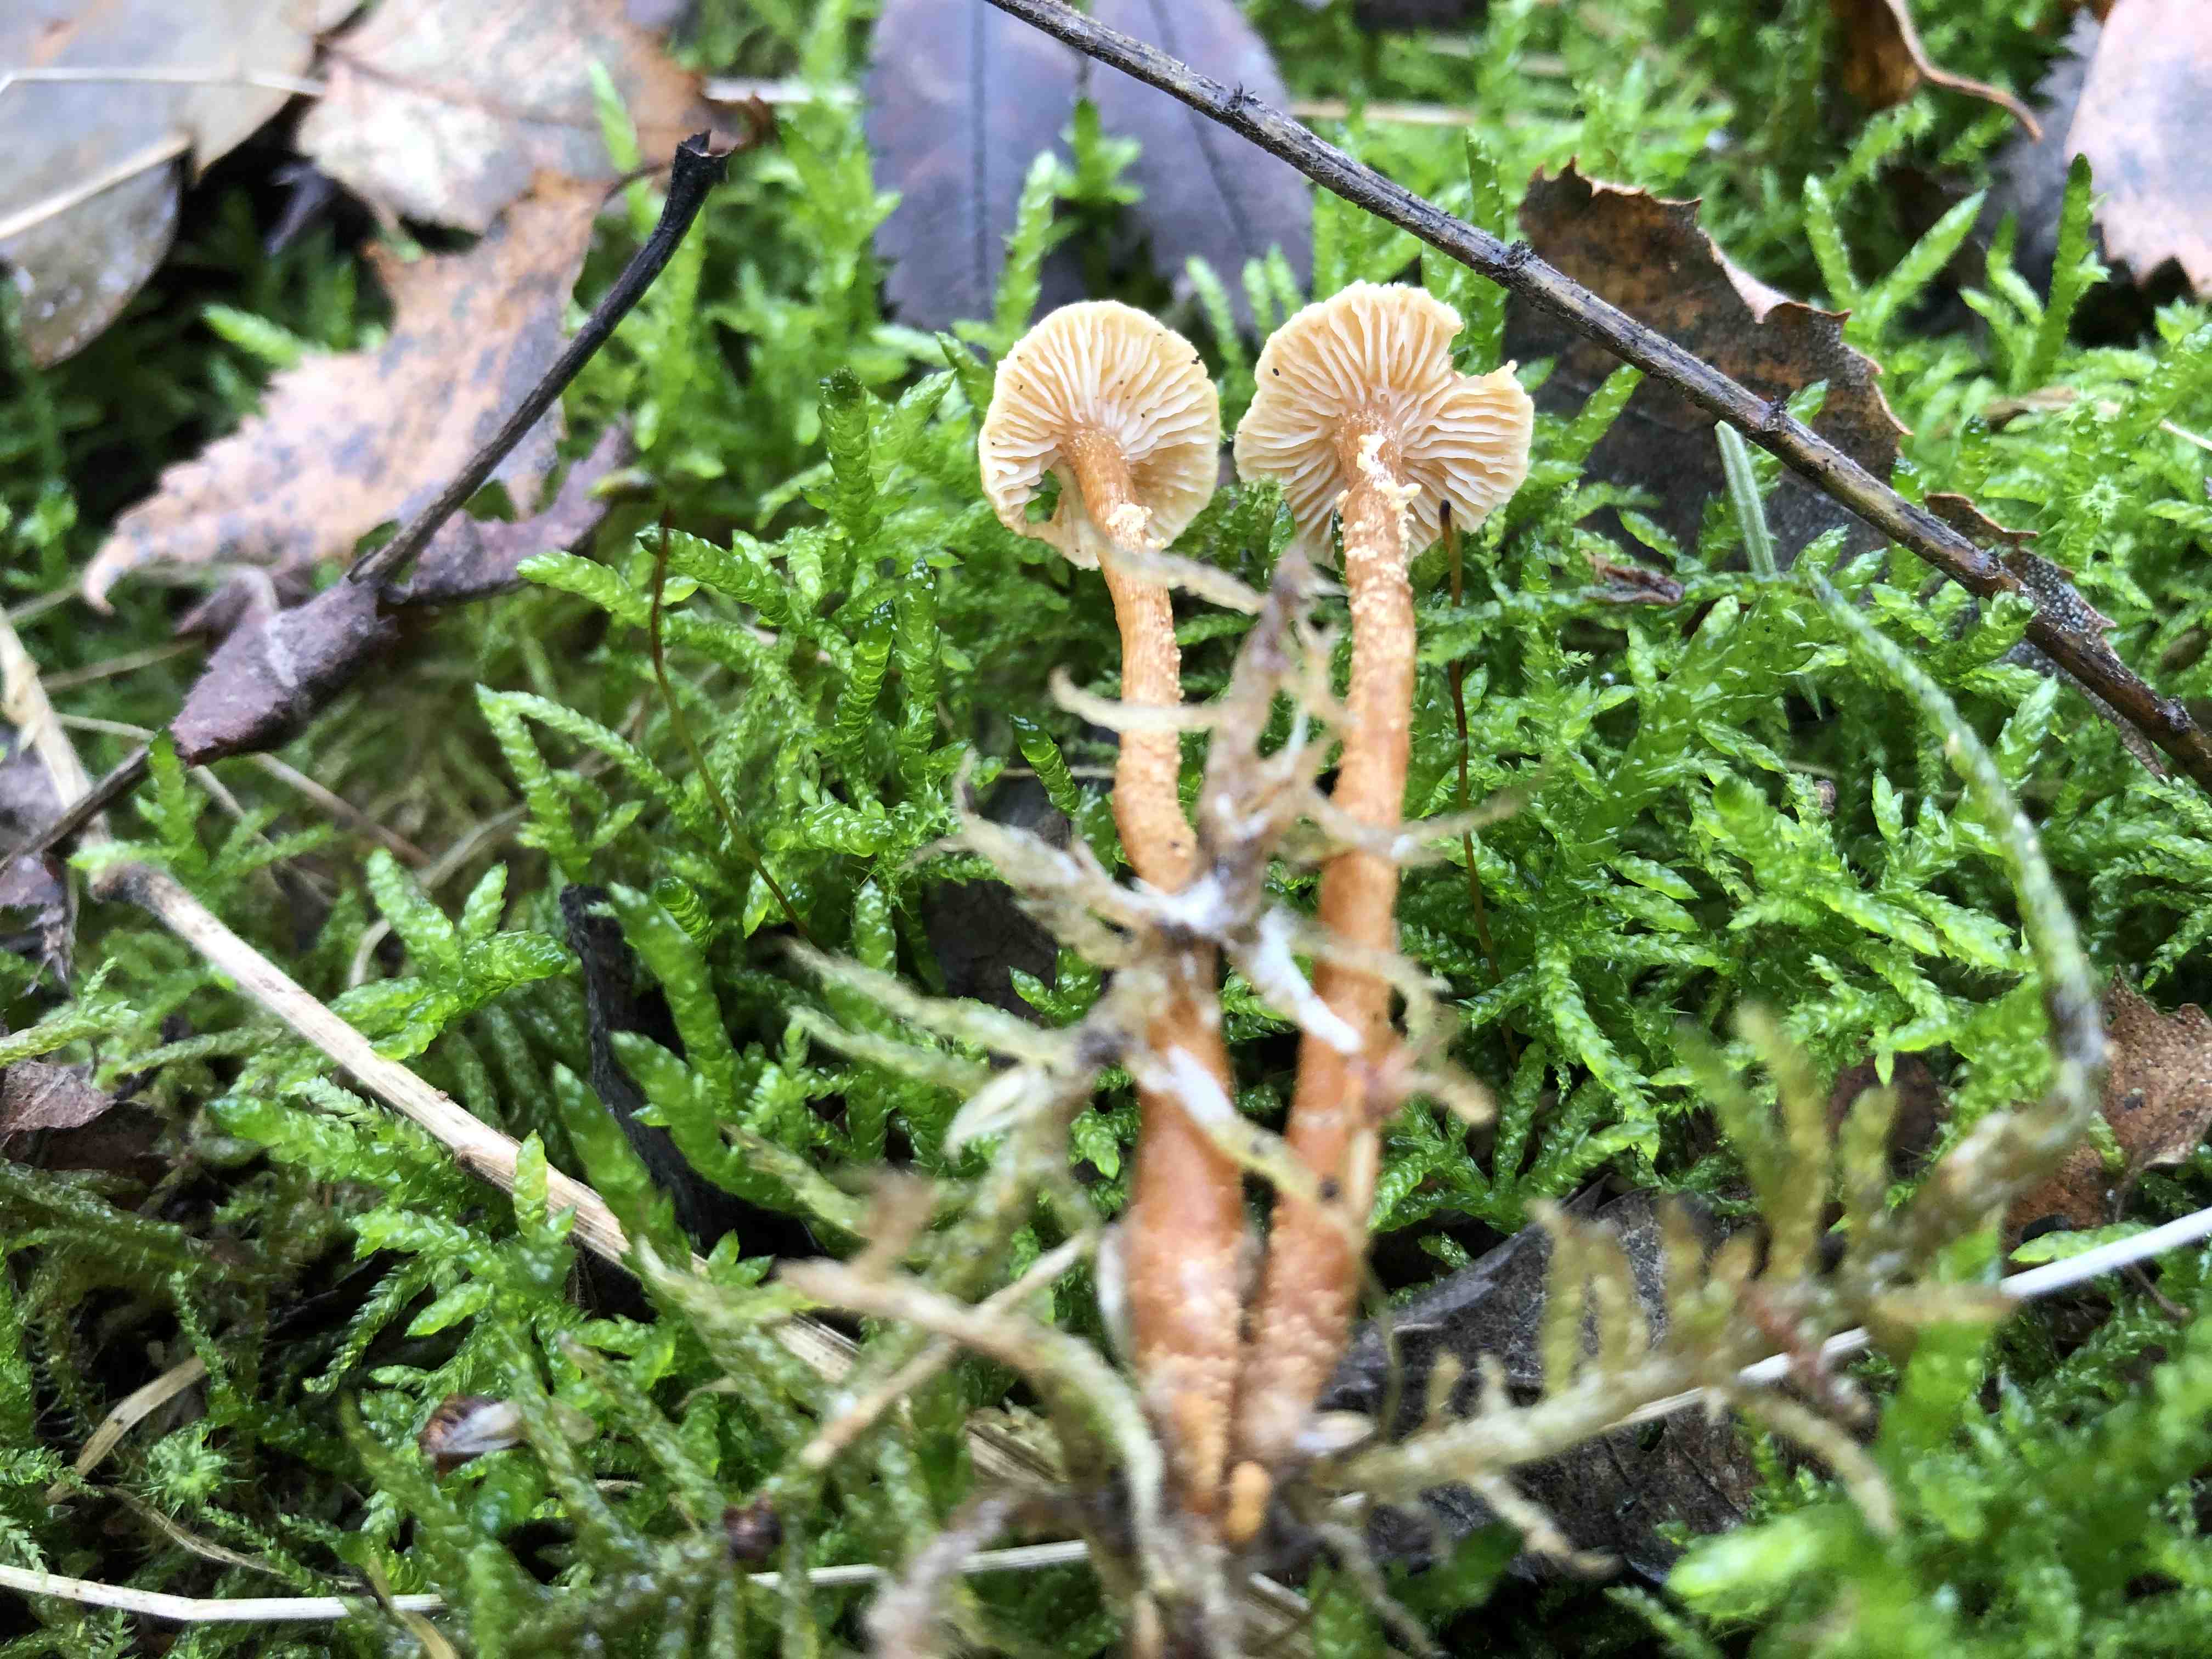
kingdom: Fungi
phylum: Basidiomycota
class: Agaricomycetes
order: Agaricales
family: Tricholomataceae
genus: Cystoderma
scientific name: Cystoderma
